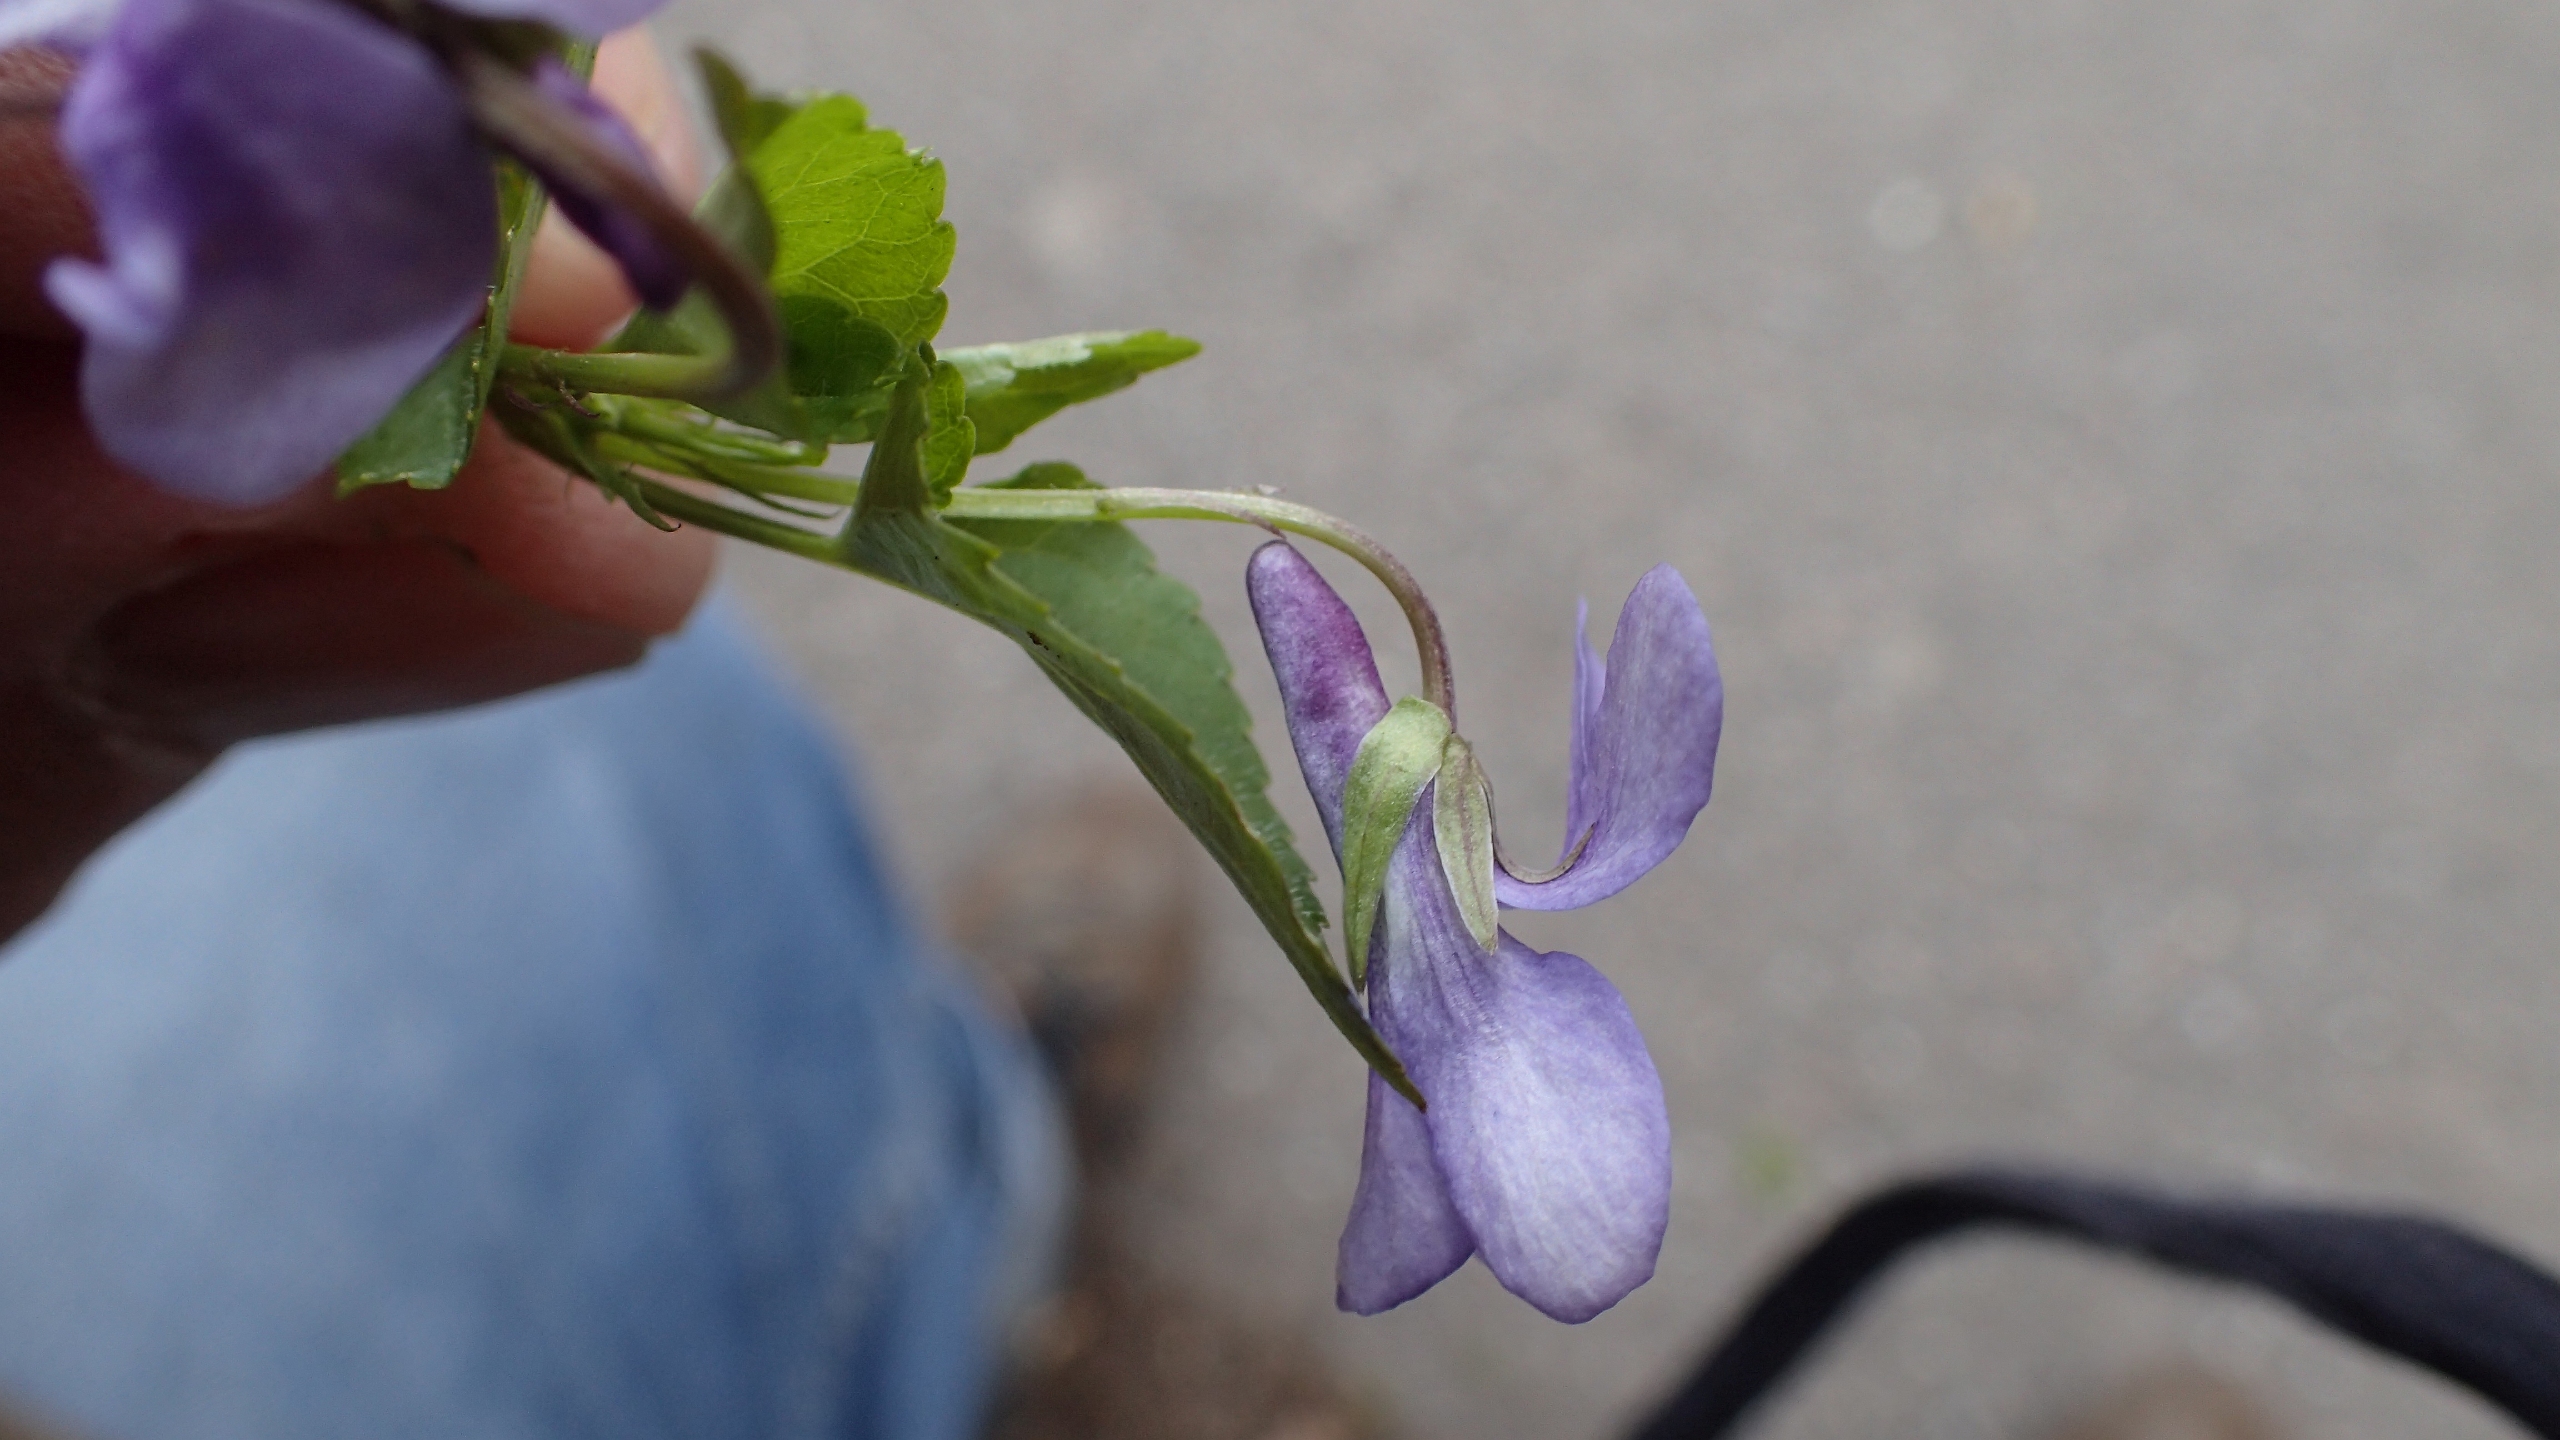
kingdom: Plantae
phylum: Tracheophyta
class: Magnoliopsida
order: Malpighiales
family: Violaceae
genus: Viola
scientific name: Viola reichenbachiana
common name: Skov-viol
